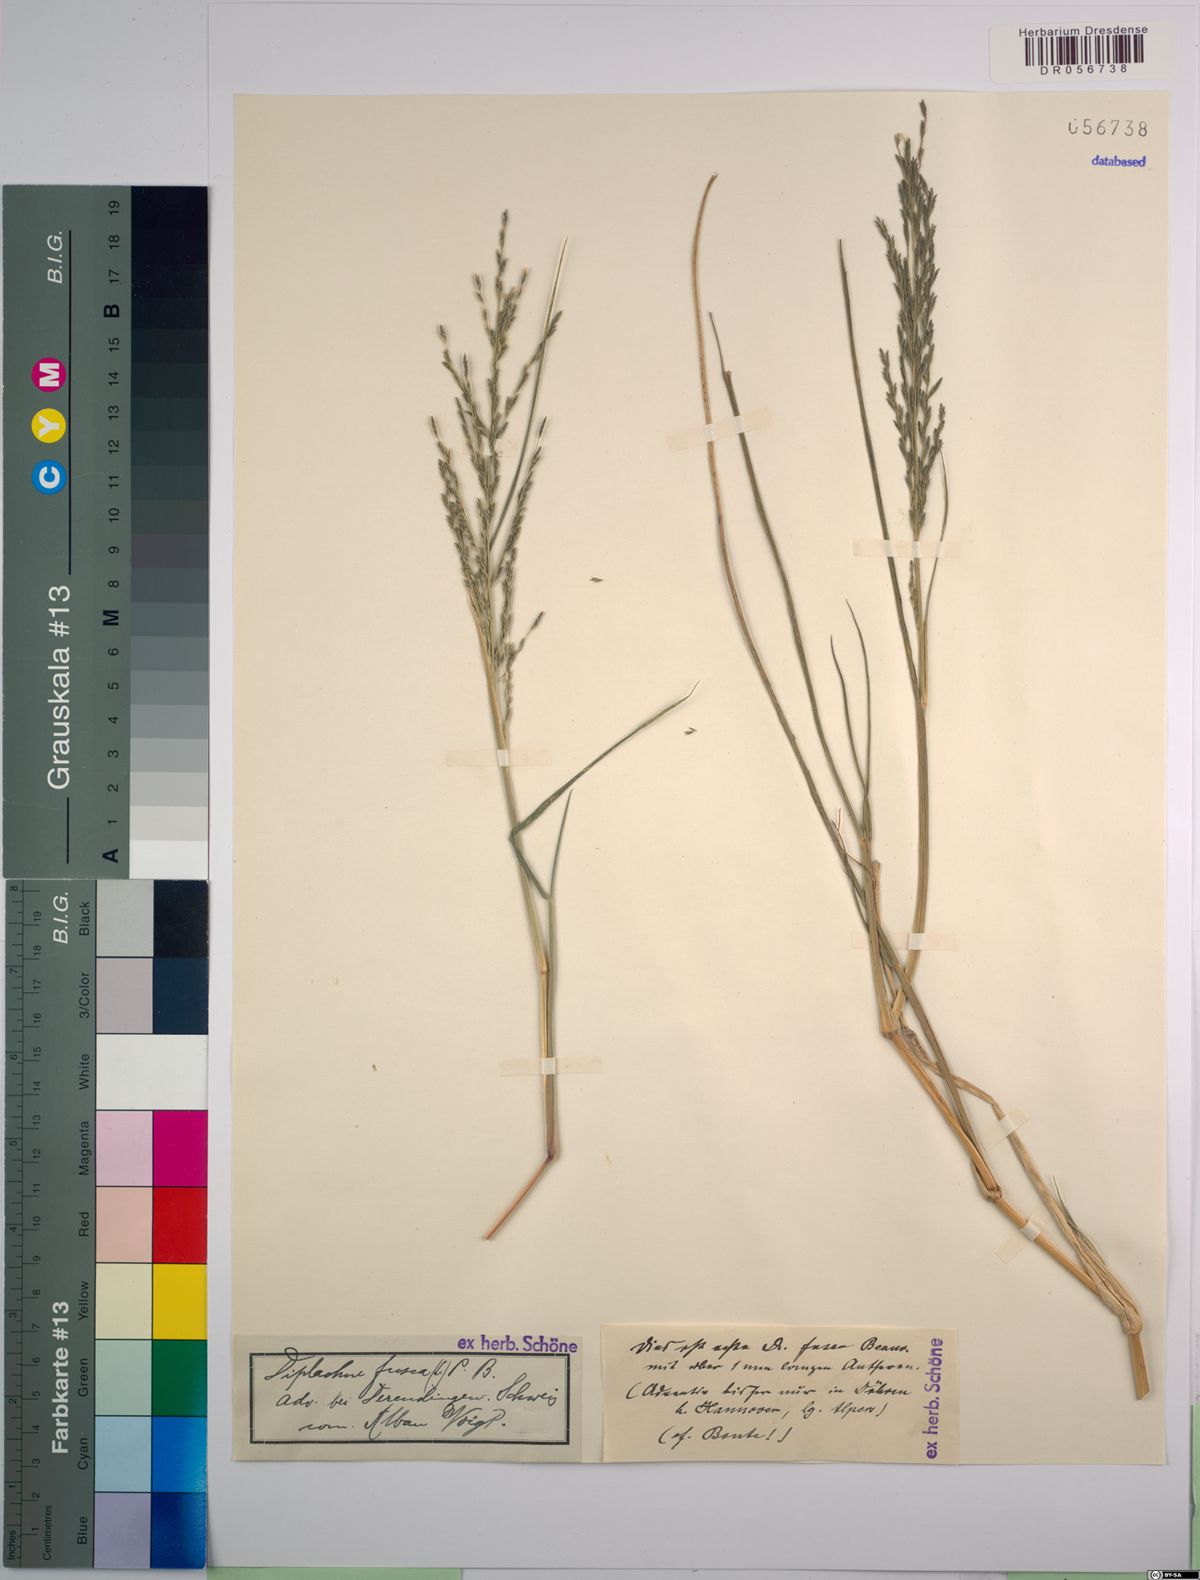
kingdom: Plantae
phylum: Tracheophyta
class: Liliopsida
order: Poales
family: Poaceae
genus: Diplachne
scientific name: Diplachne fusca
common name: Brown beetle grass
